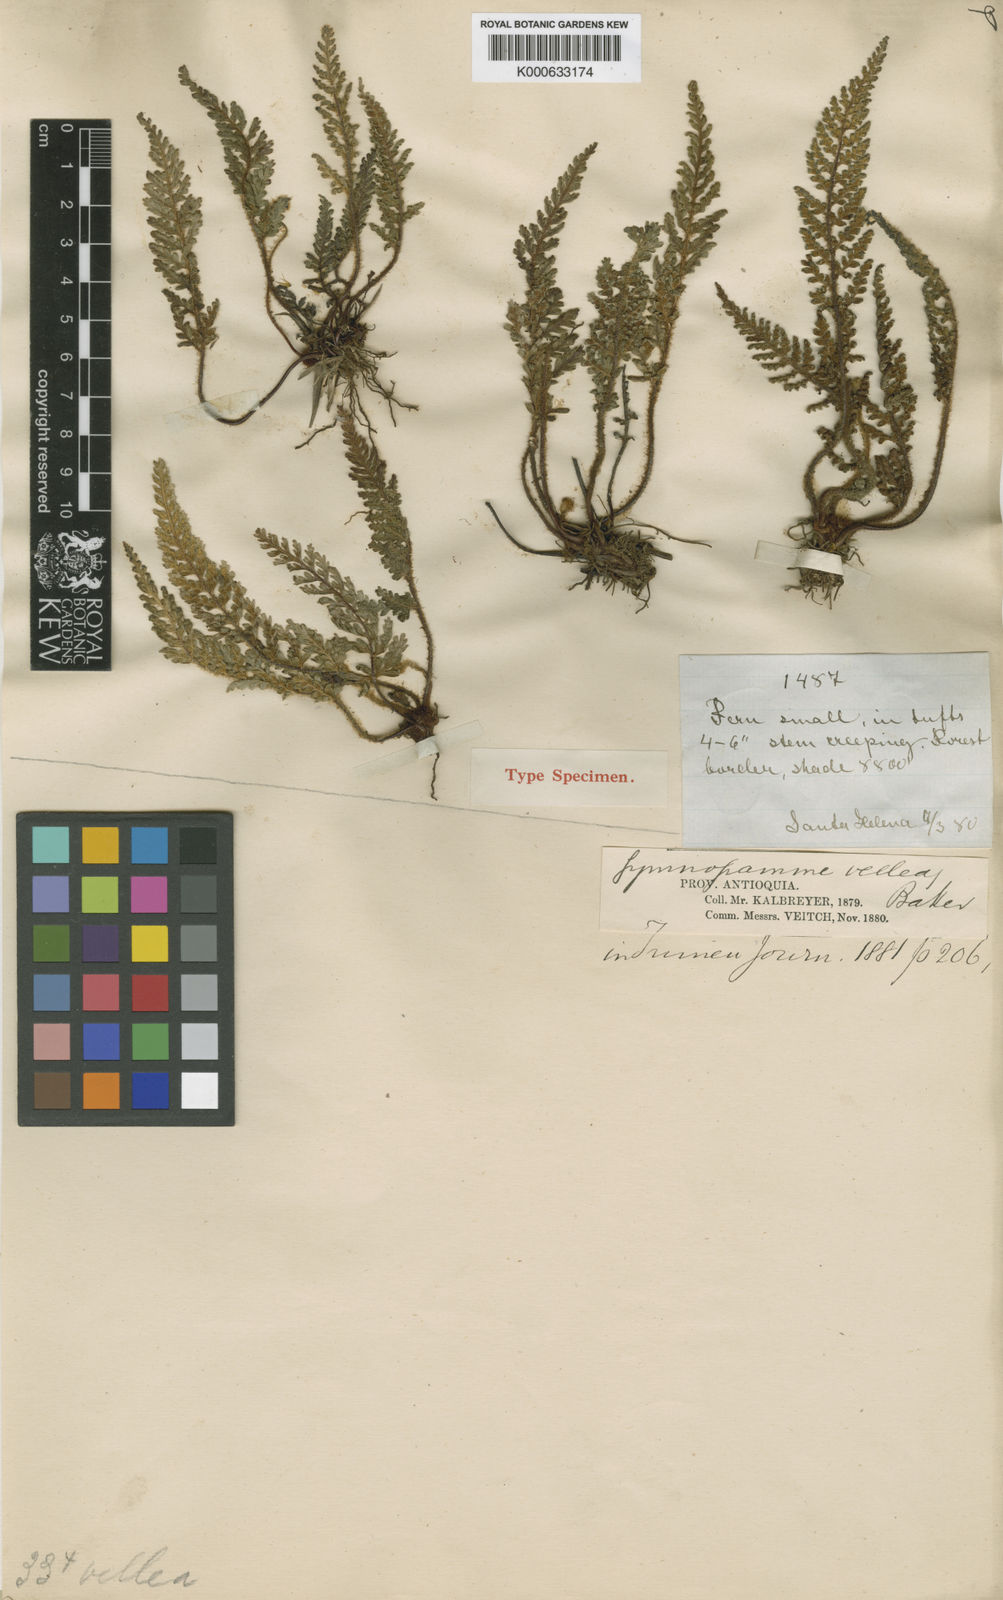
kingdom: Plantae
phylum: Tracheophyta
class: Polypodiopsida
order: Polypodiales
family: Pteridaceae
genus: Jamesonia
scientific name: Jamesonia vellea
